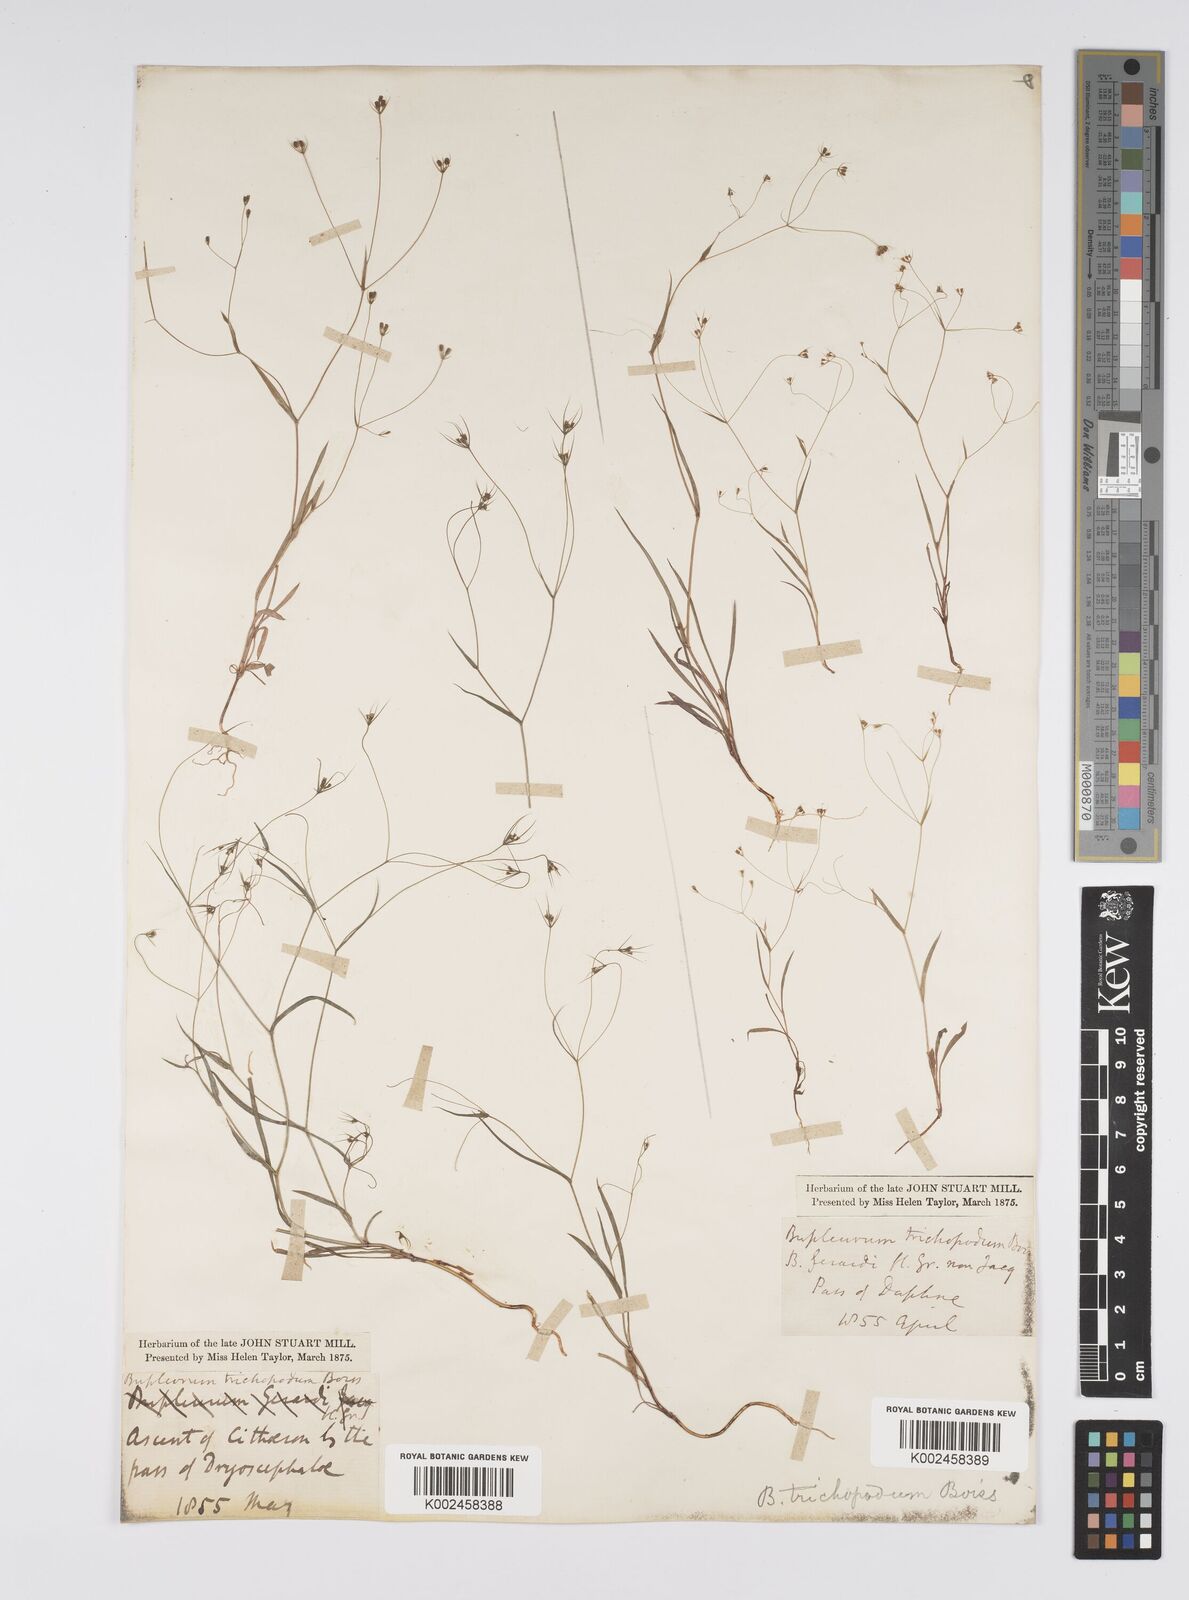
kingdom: Plantae
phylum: Tracheophyta
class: Magnoliopsida
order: Apiales
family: Apiaceae
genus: Bupleurum
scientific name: Bupleurum trichopodum
